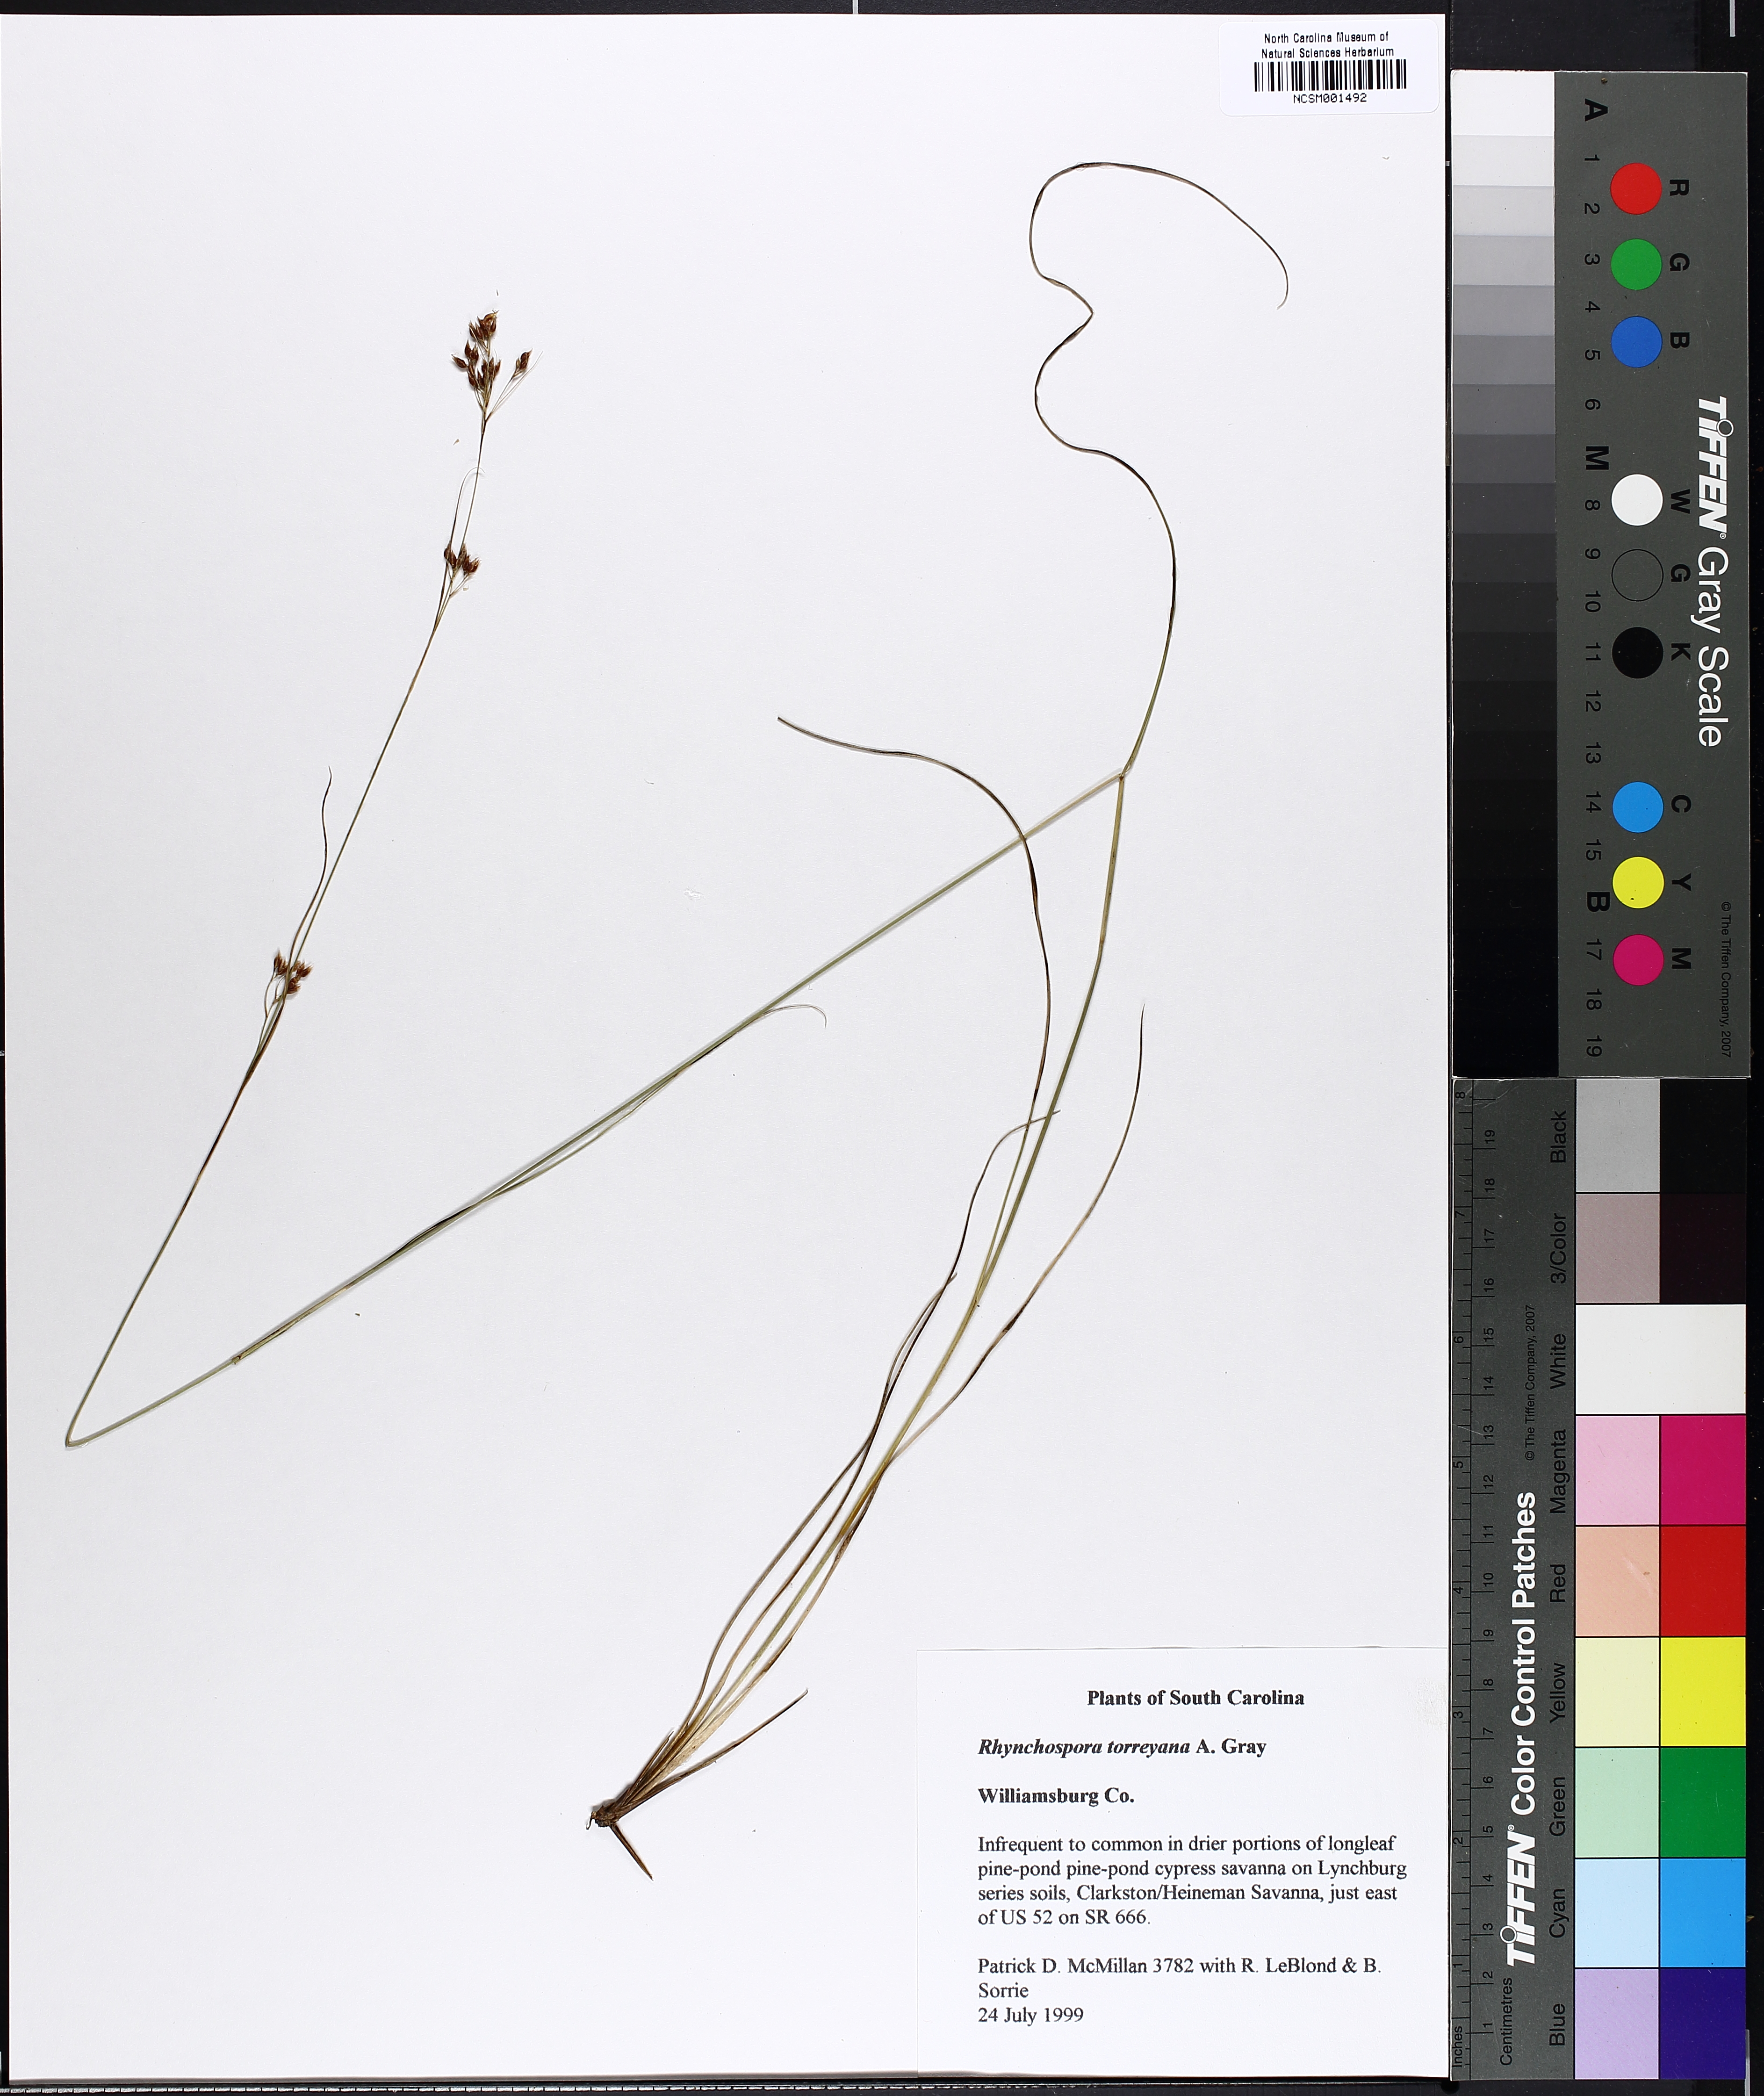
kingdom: Plantae
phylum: Tracheophyta
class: Liliopsida
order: Poales
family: Cyperaceae
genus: Rhynchospora
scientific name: Rhynchospora torreyana
